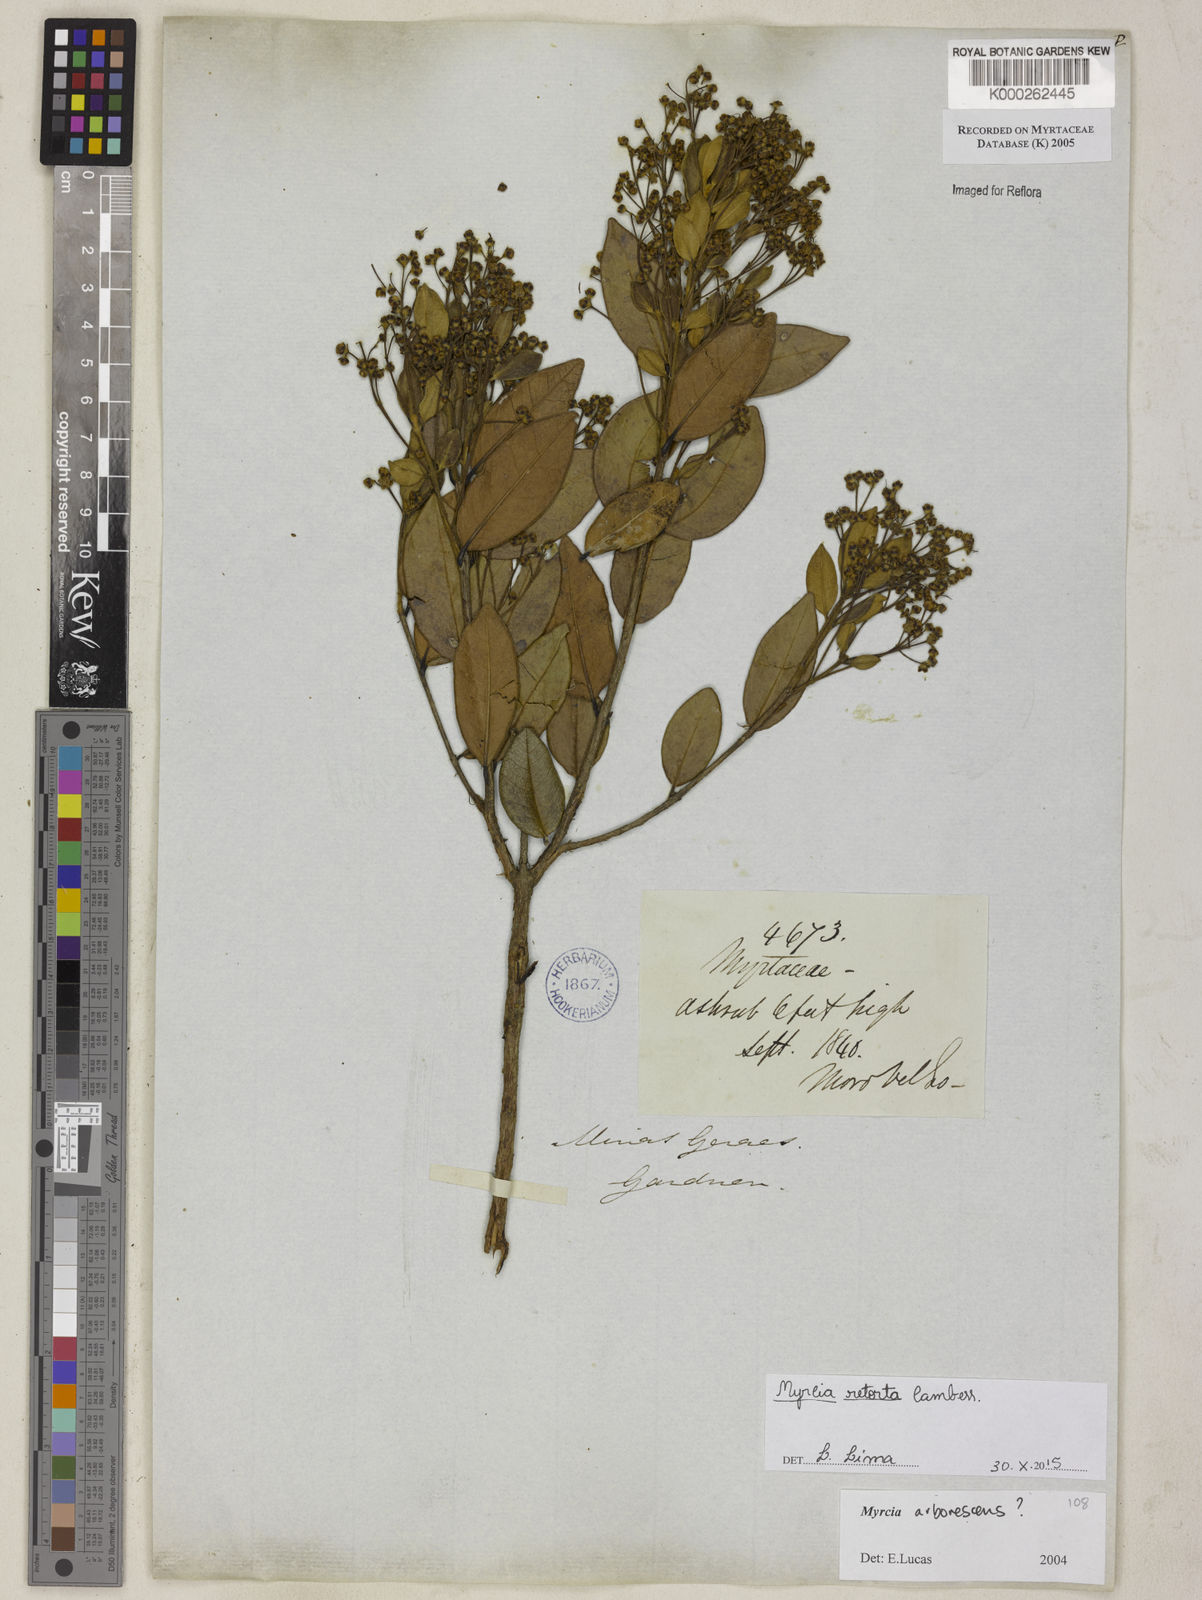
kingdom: Plantae
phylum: Tracheophyta
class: Magnoliopsida
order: Myrtales
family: Myrtaceae
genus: Myrcia
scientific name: Myrcia retorta
